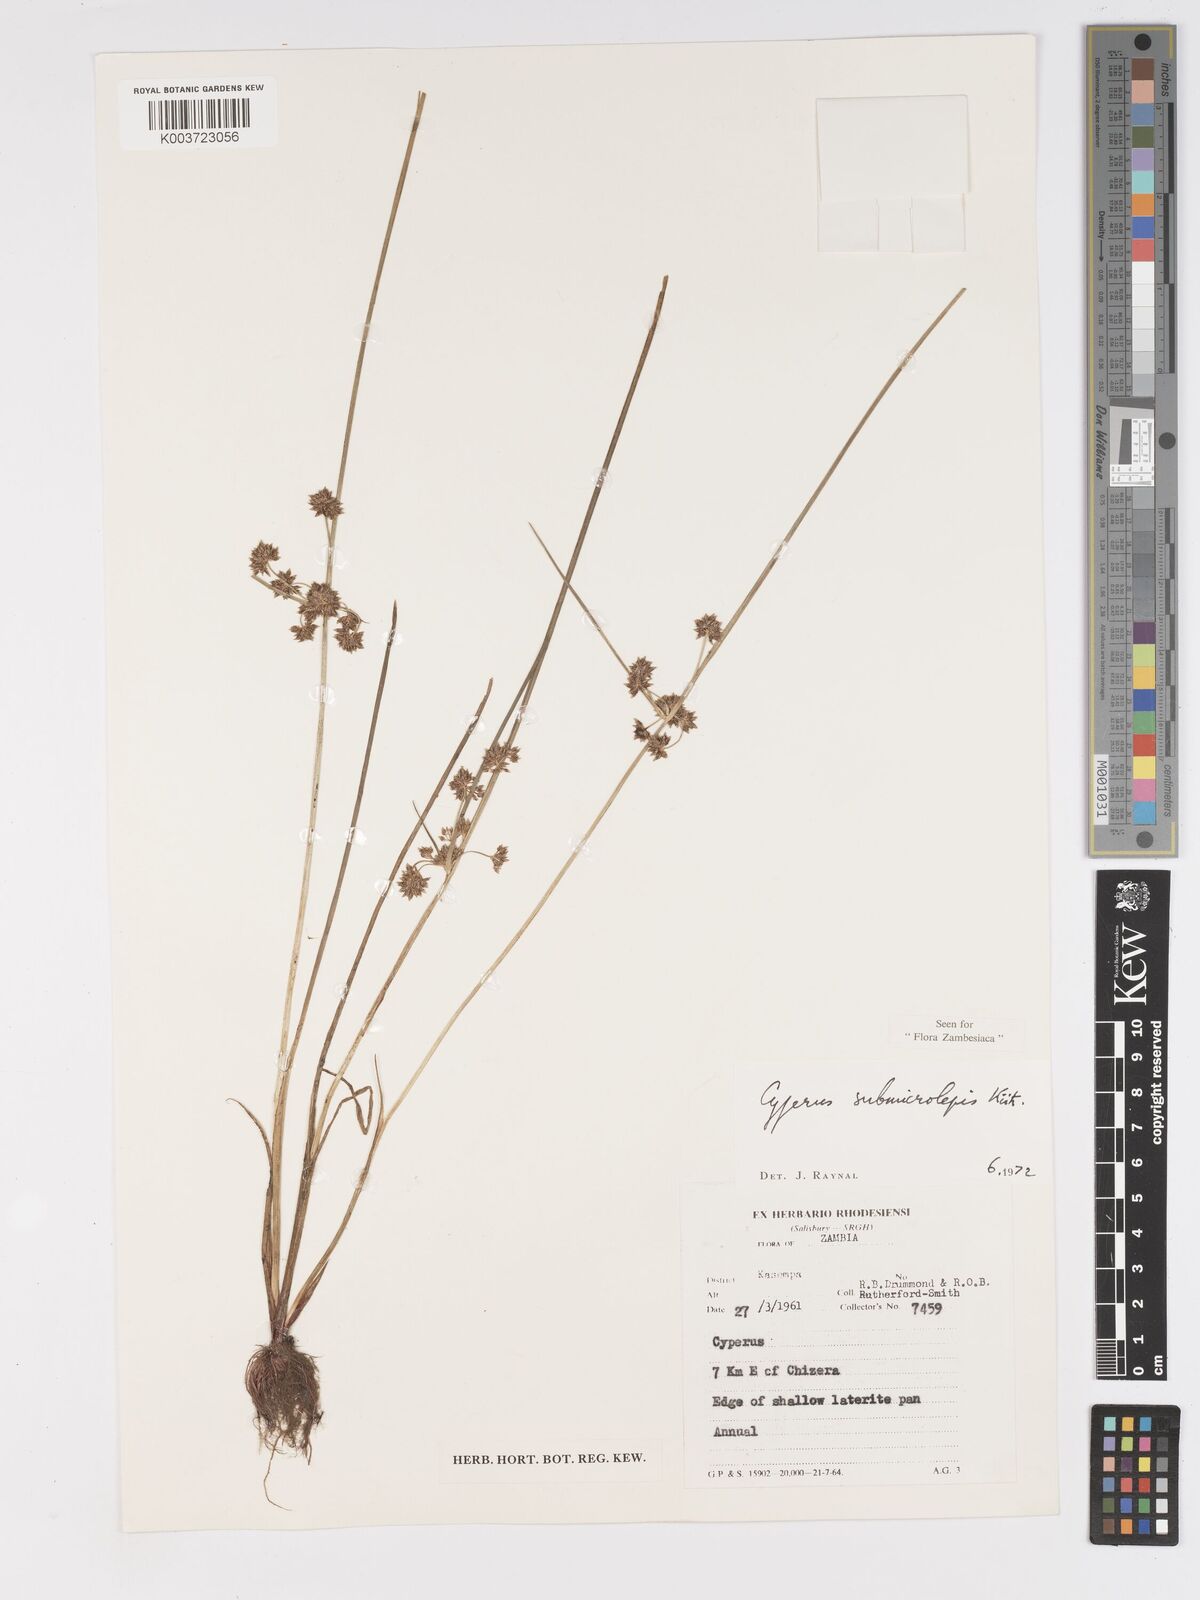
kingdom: Plantae
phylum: Tracheophyta
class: Liliopsida
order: Poales
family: Cyperaceae
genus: Cyperus
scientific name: Cyperus submicrolepis
